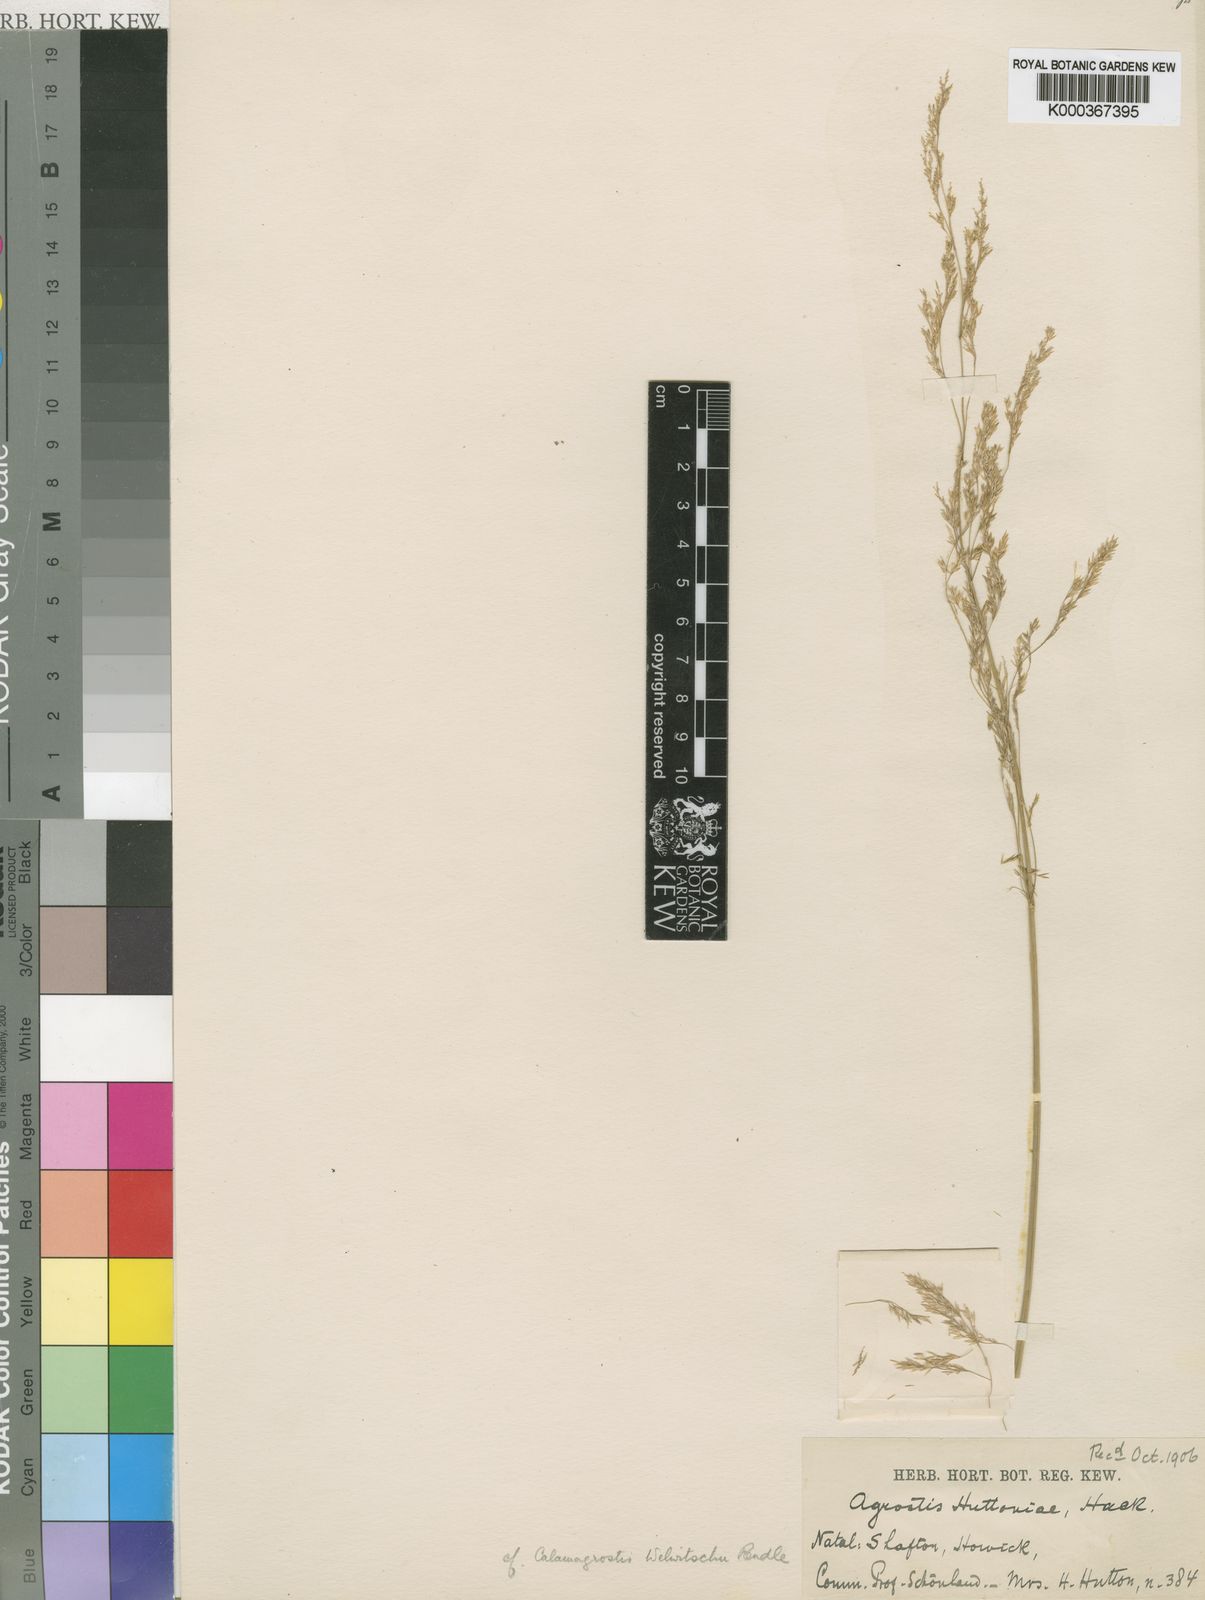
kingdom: Plantae
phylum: Tracheophyta
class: Liliopsida
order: Poales
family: Poaceae
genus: Lachnagrostis
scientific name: Lachnagrostis lachnantha
